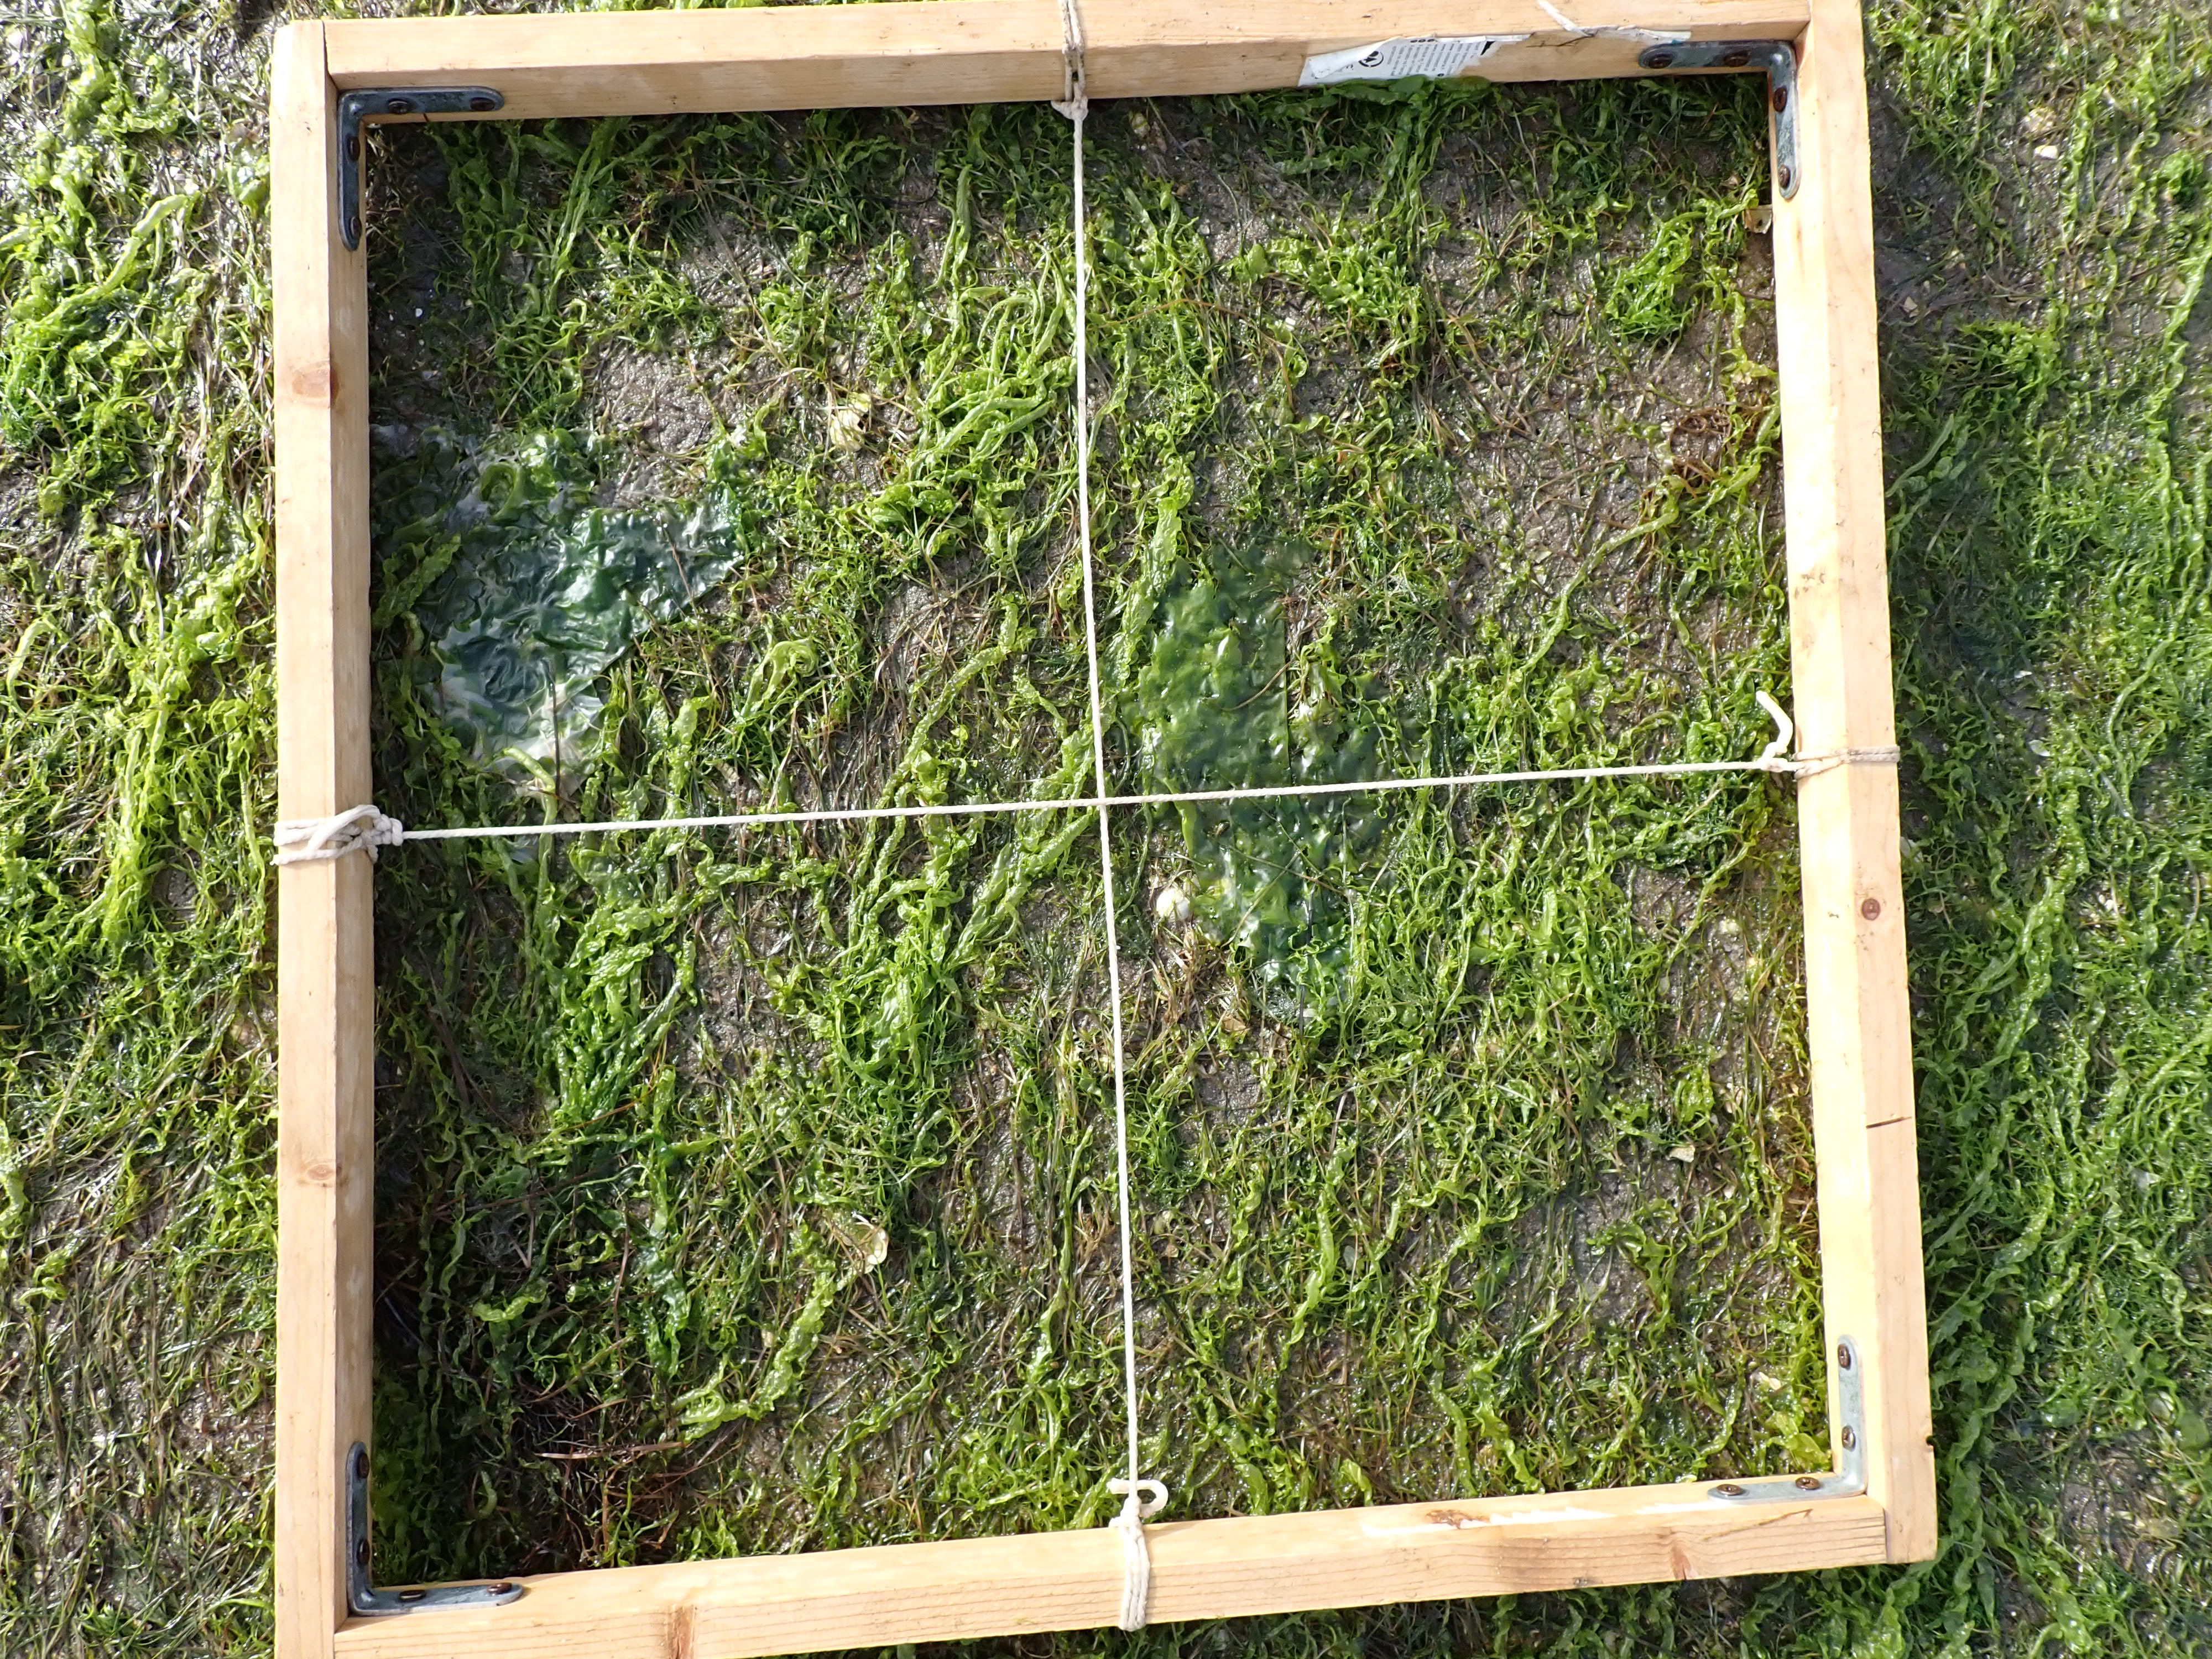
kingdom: Plantae
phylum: Tracheophyta
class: Liliopsida
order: Alismatales
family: Zosteraceae
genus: Zostera
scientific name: Zostera noltii
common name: Dwarf eelgrass
